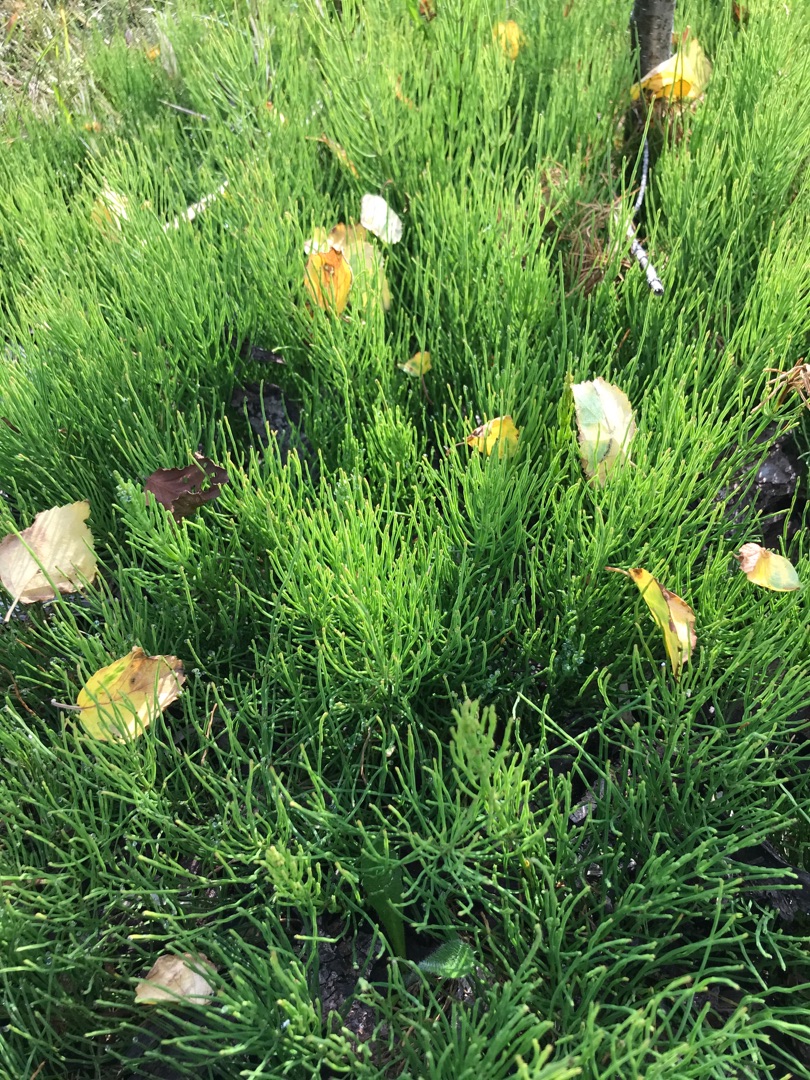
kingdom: Plantae
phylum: Tracheophyta
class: Polypodiopsida
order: Equisetales
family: Equisetaceae
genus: Equisetum
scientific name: Equisetum arvense
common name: Ager-padderok
